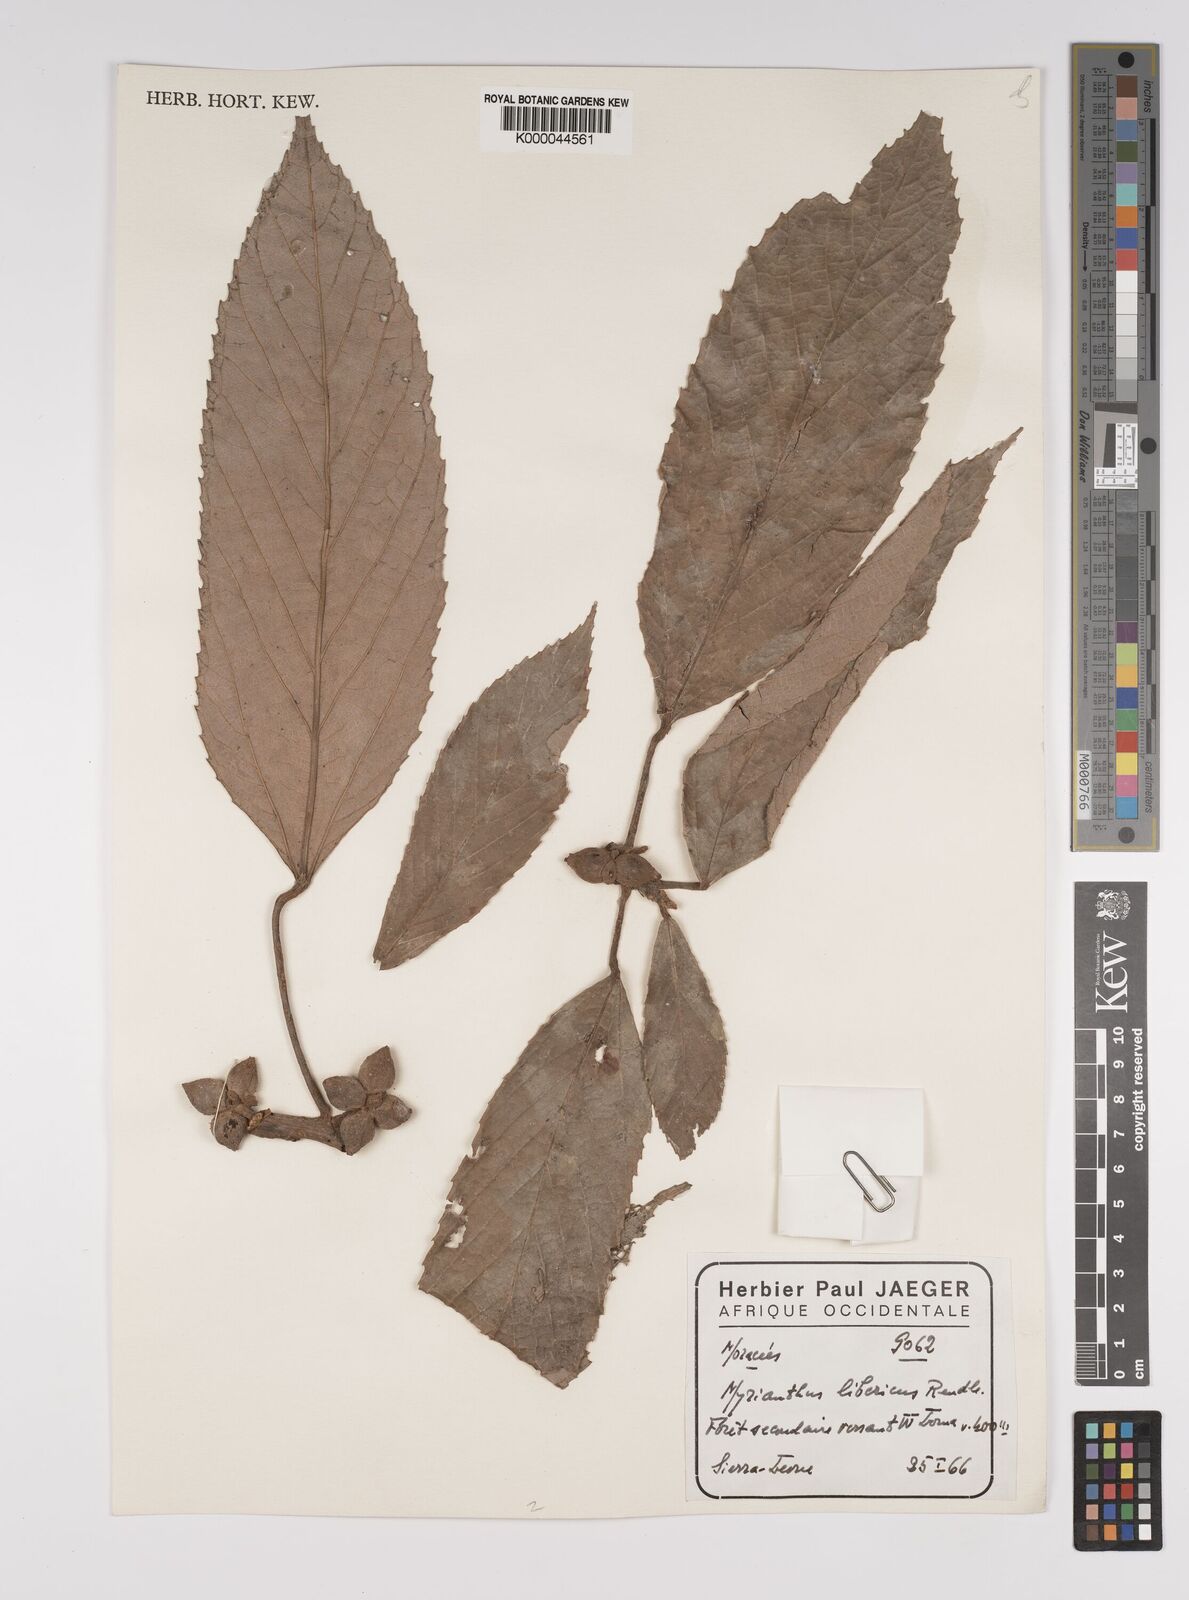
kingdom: Plantae
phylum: Tracheophyta
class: Magnoliopsida
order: Rosales
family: Urticaceae
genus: Myrianthus
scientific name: Myrianthus libericus
